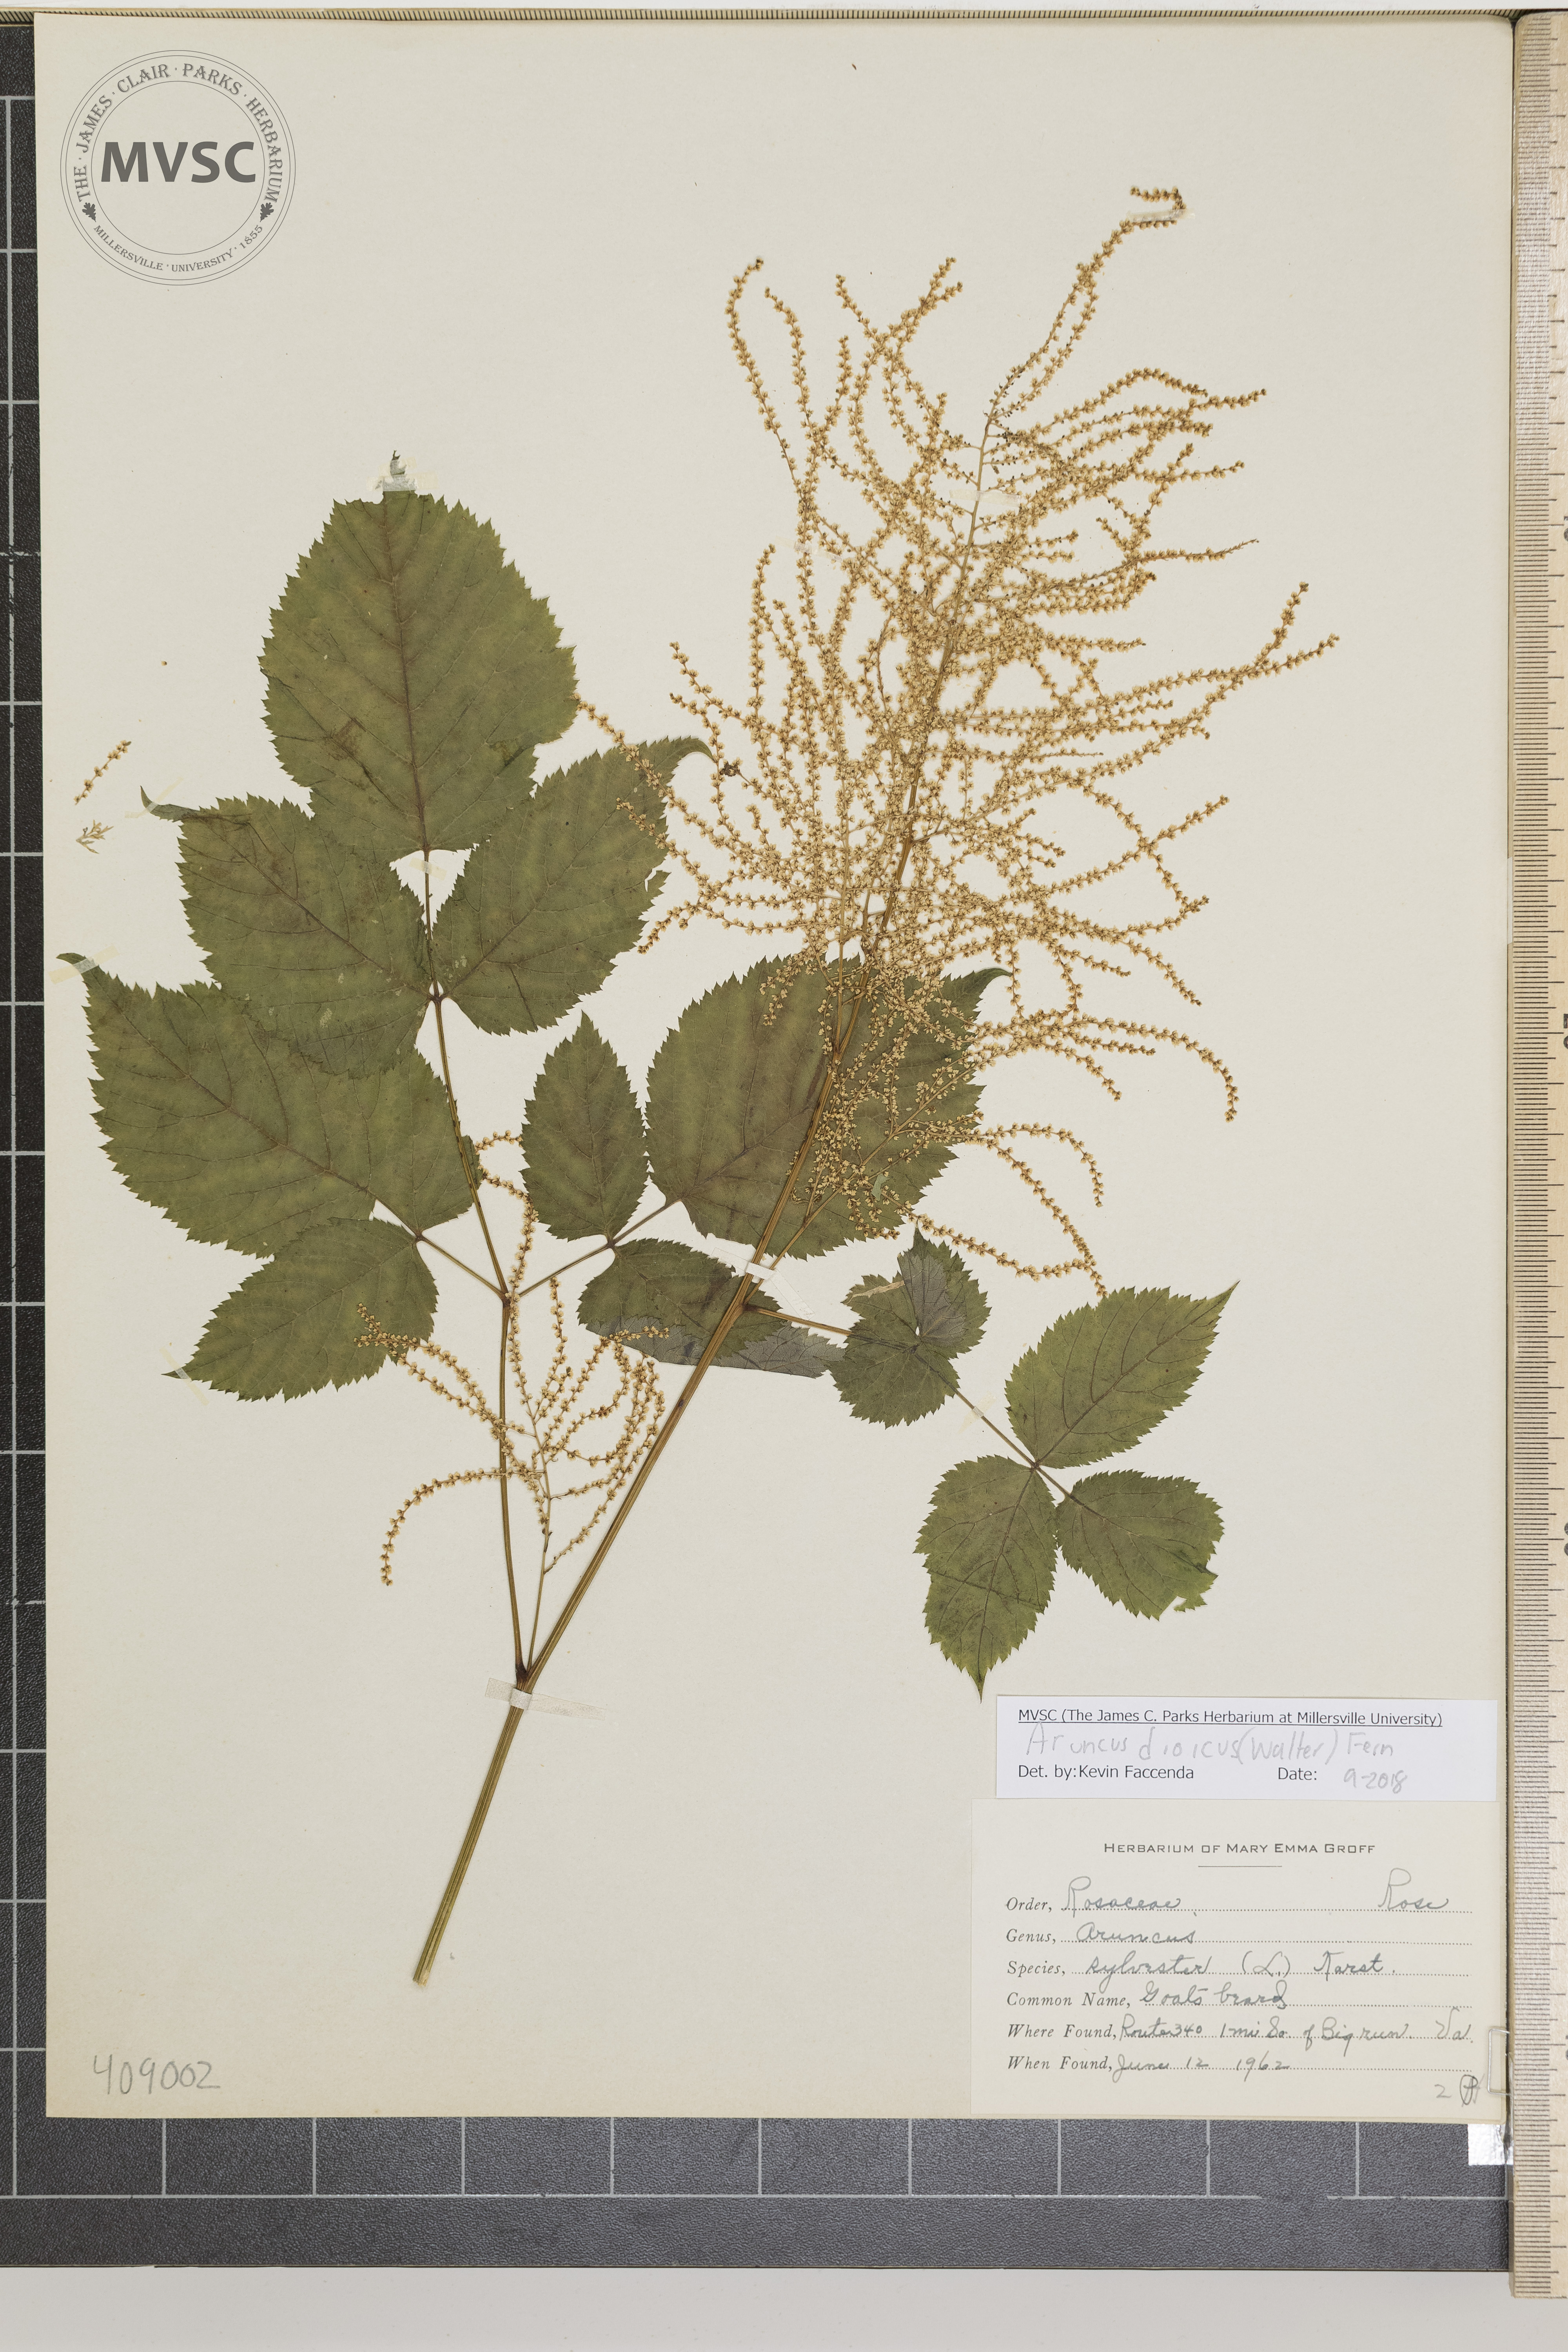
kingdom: Plantae
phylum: Tracheophyta
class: Magnoliopsida
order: Rosales
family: Rosaceae
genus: Aruncus
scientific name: Aruncus dioicus
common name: Goat's Beard
